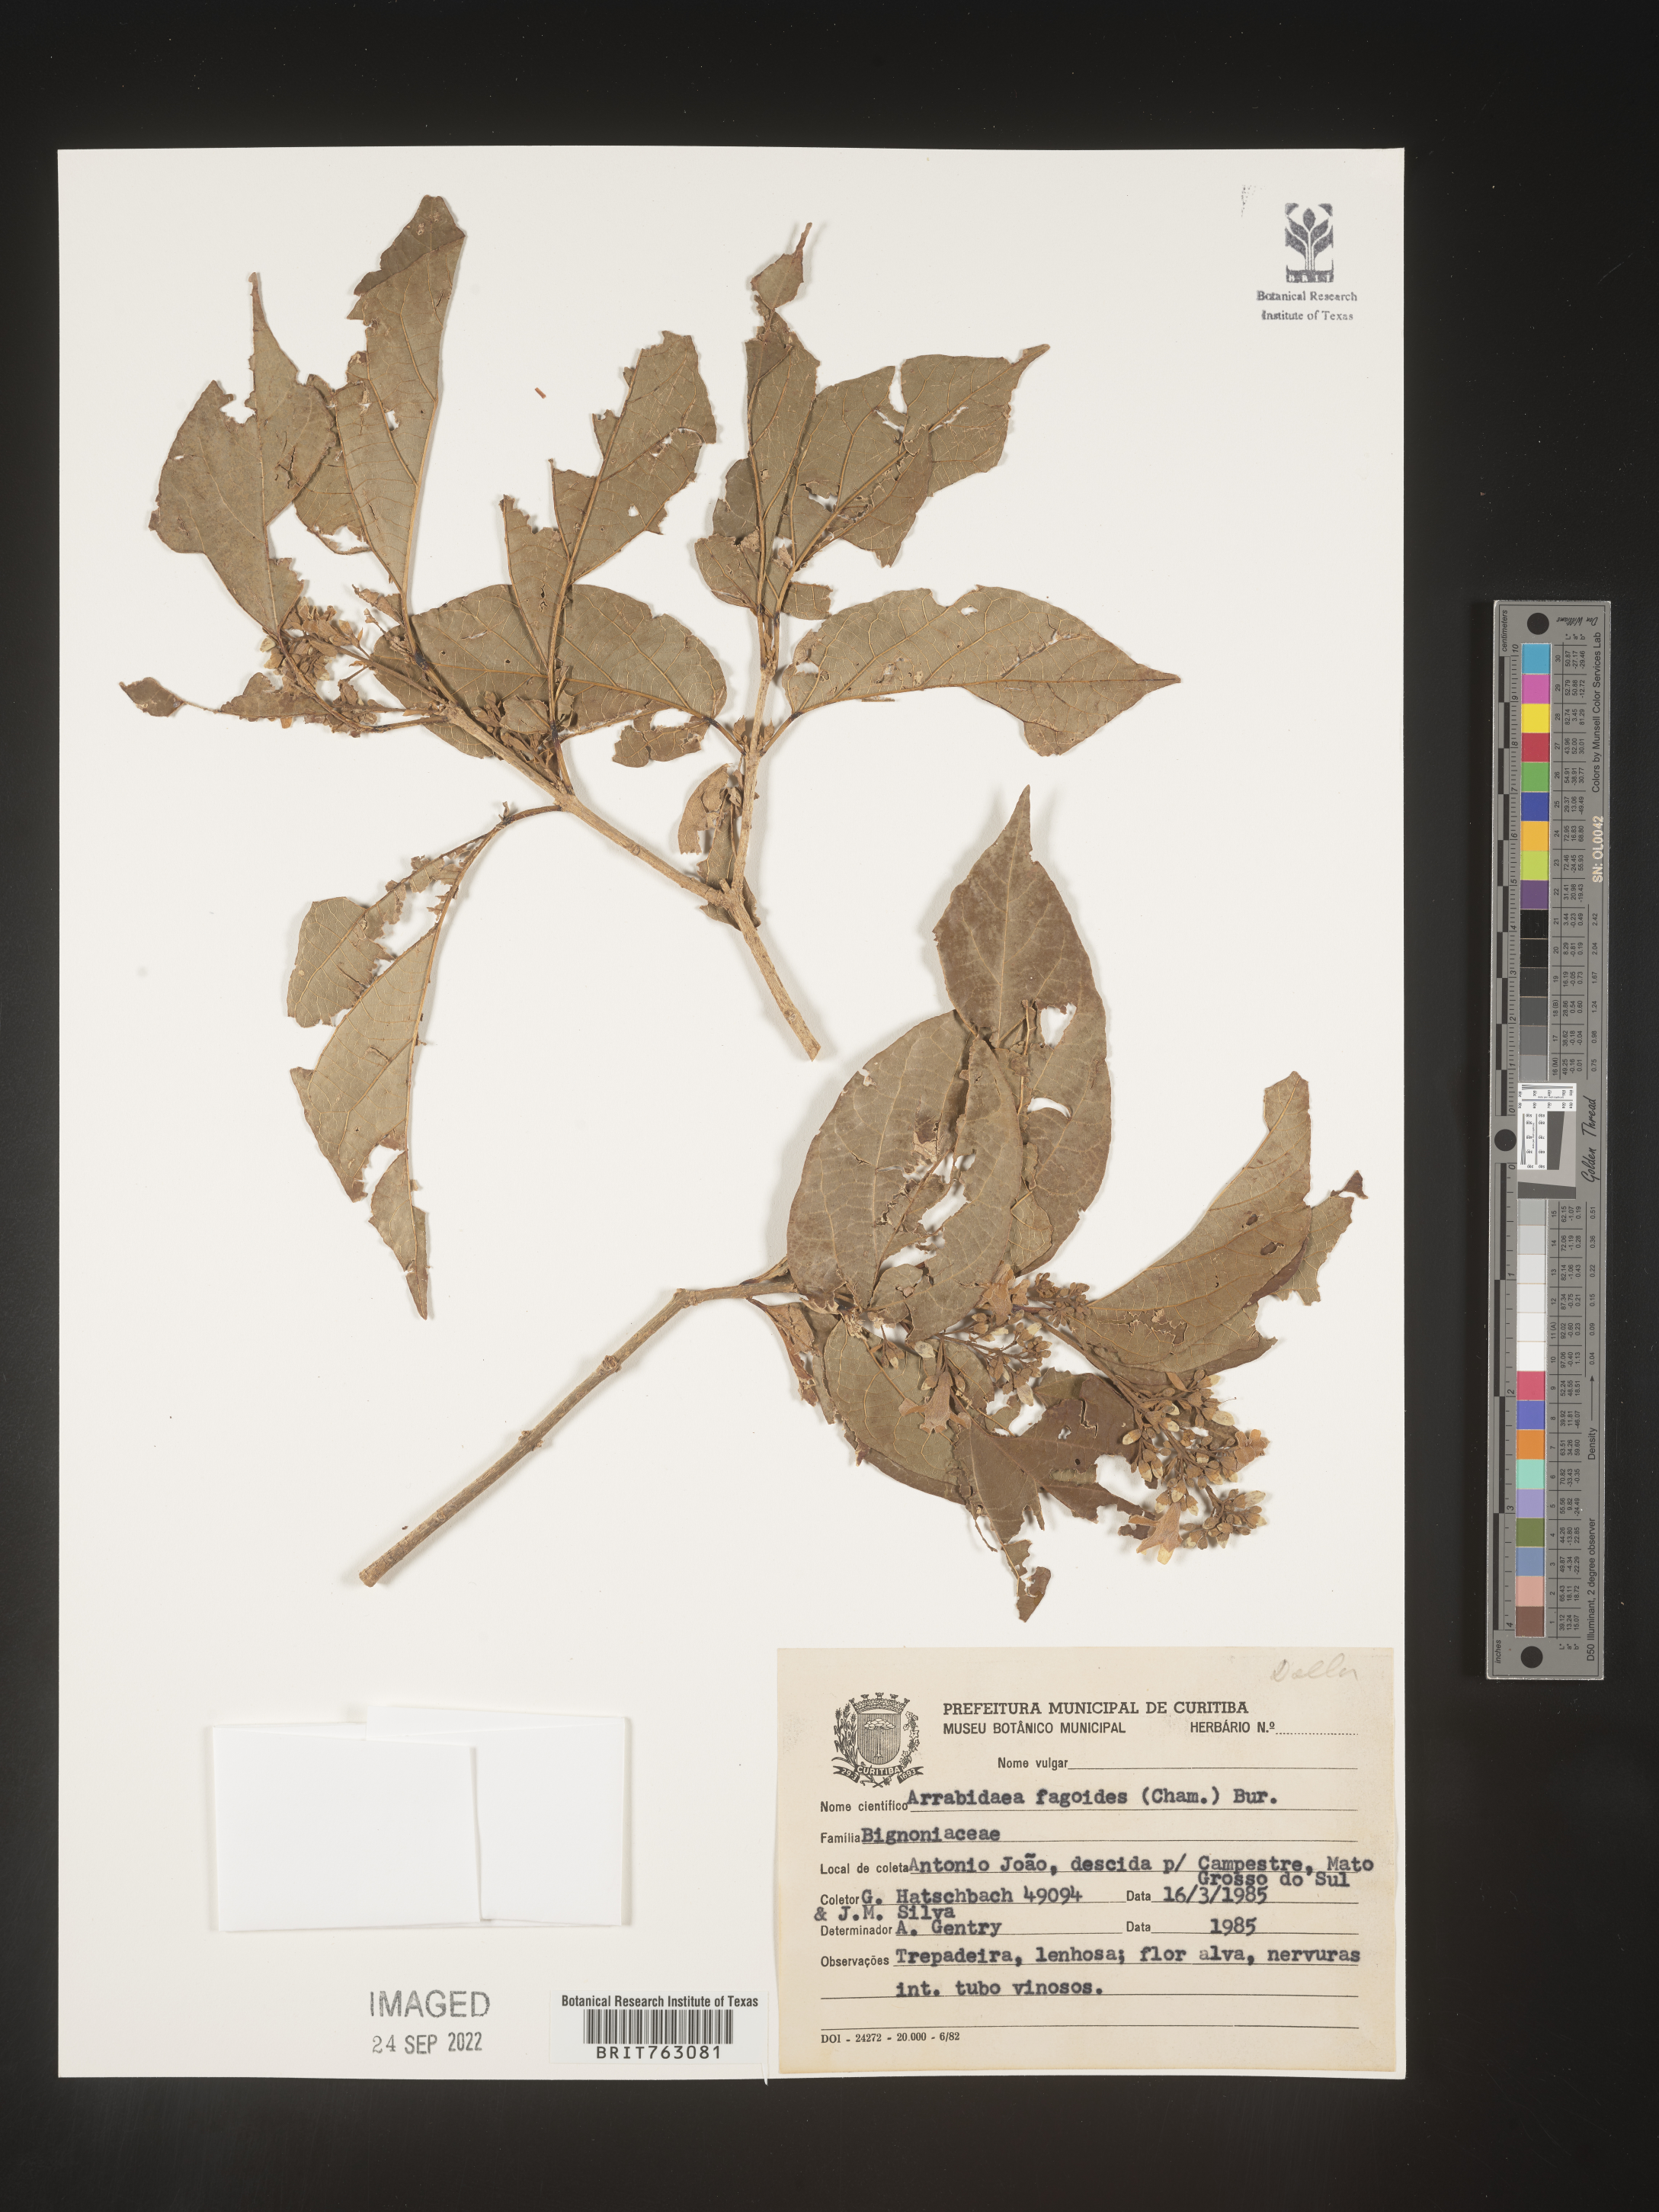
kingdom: Plantae
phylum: Tracheophyta
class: Magnoliopsida
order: Rosales
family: Rhamnaceae
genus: Arrabidaea
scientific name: Arrabidaea
